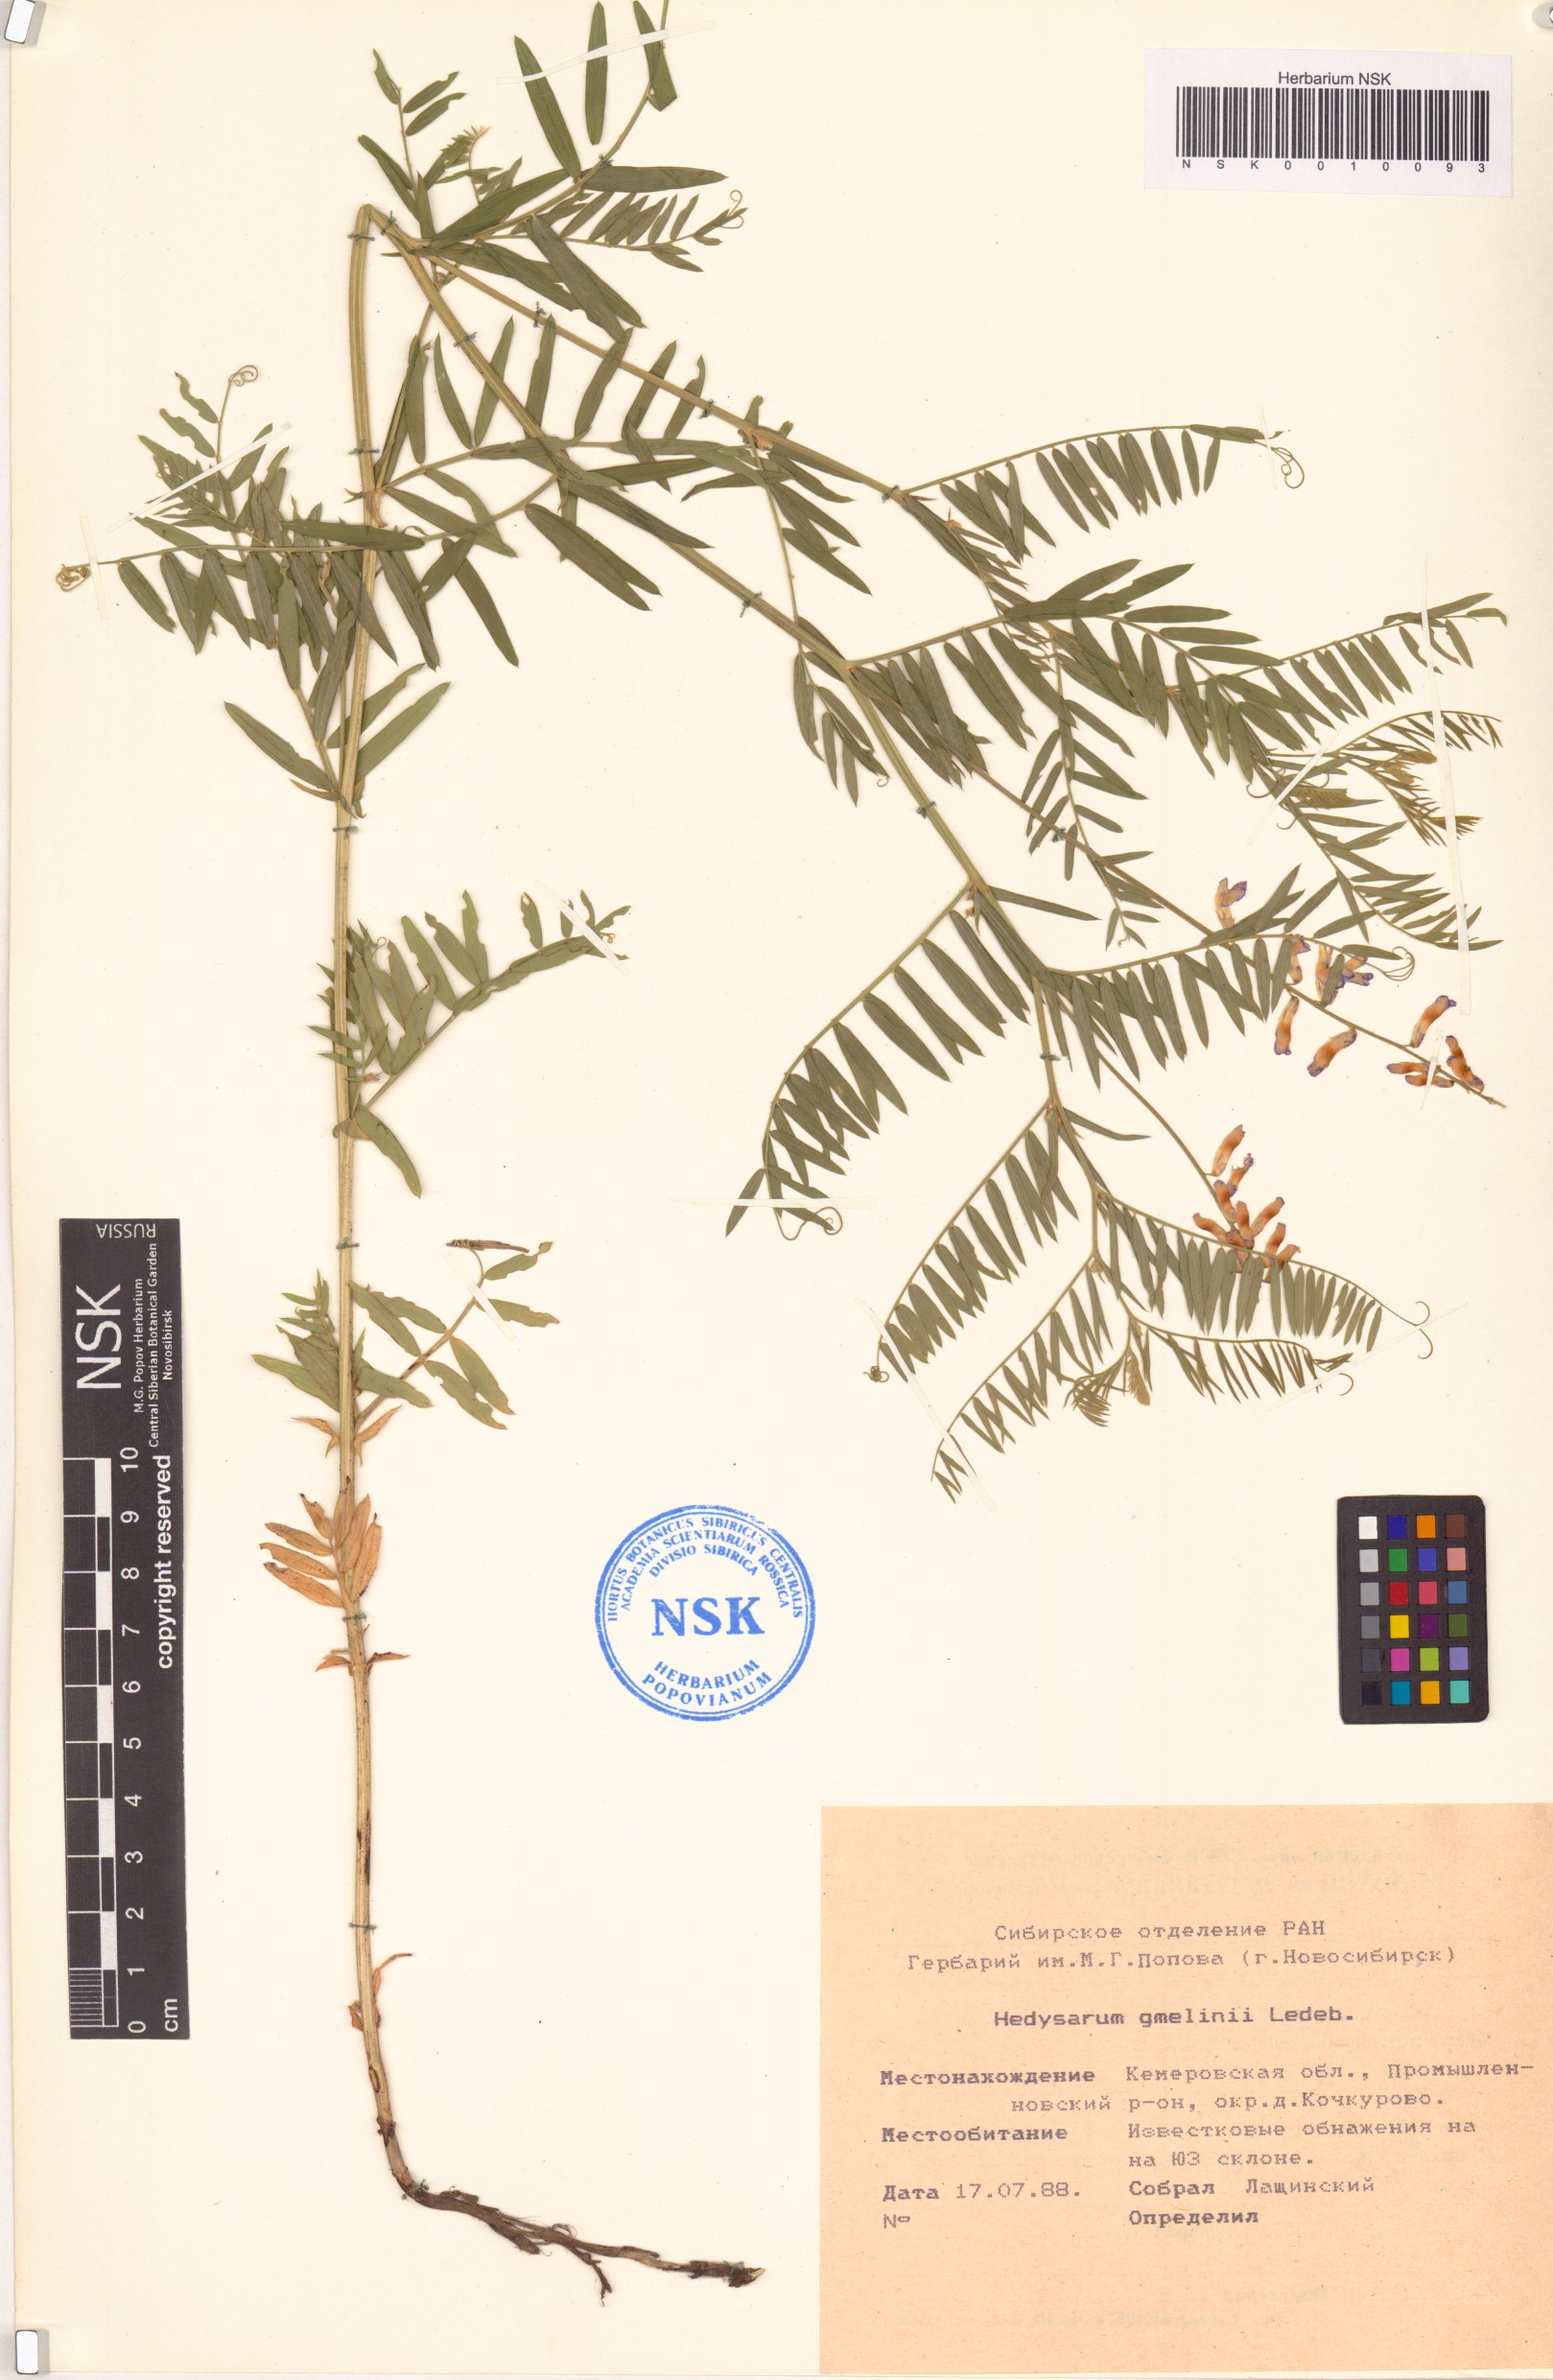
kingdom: Plantae
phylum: Tracheophyta
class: Magnoliopsida
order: Fabales
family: Fabaceae
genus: Hedysarum
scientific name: Hedysarum gmelinii
